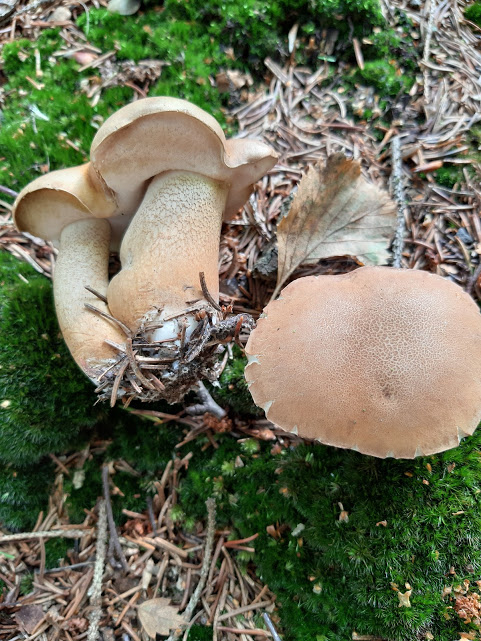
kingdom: Fungi
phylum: Basidiomycota
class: Agaricomycetes
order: Boletales
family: Boletaceae
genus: Tylopilus
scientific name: Tylopilus felleus
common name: galderørhat
